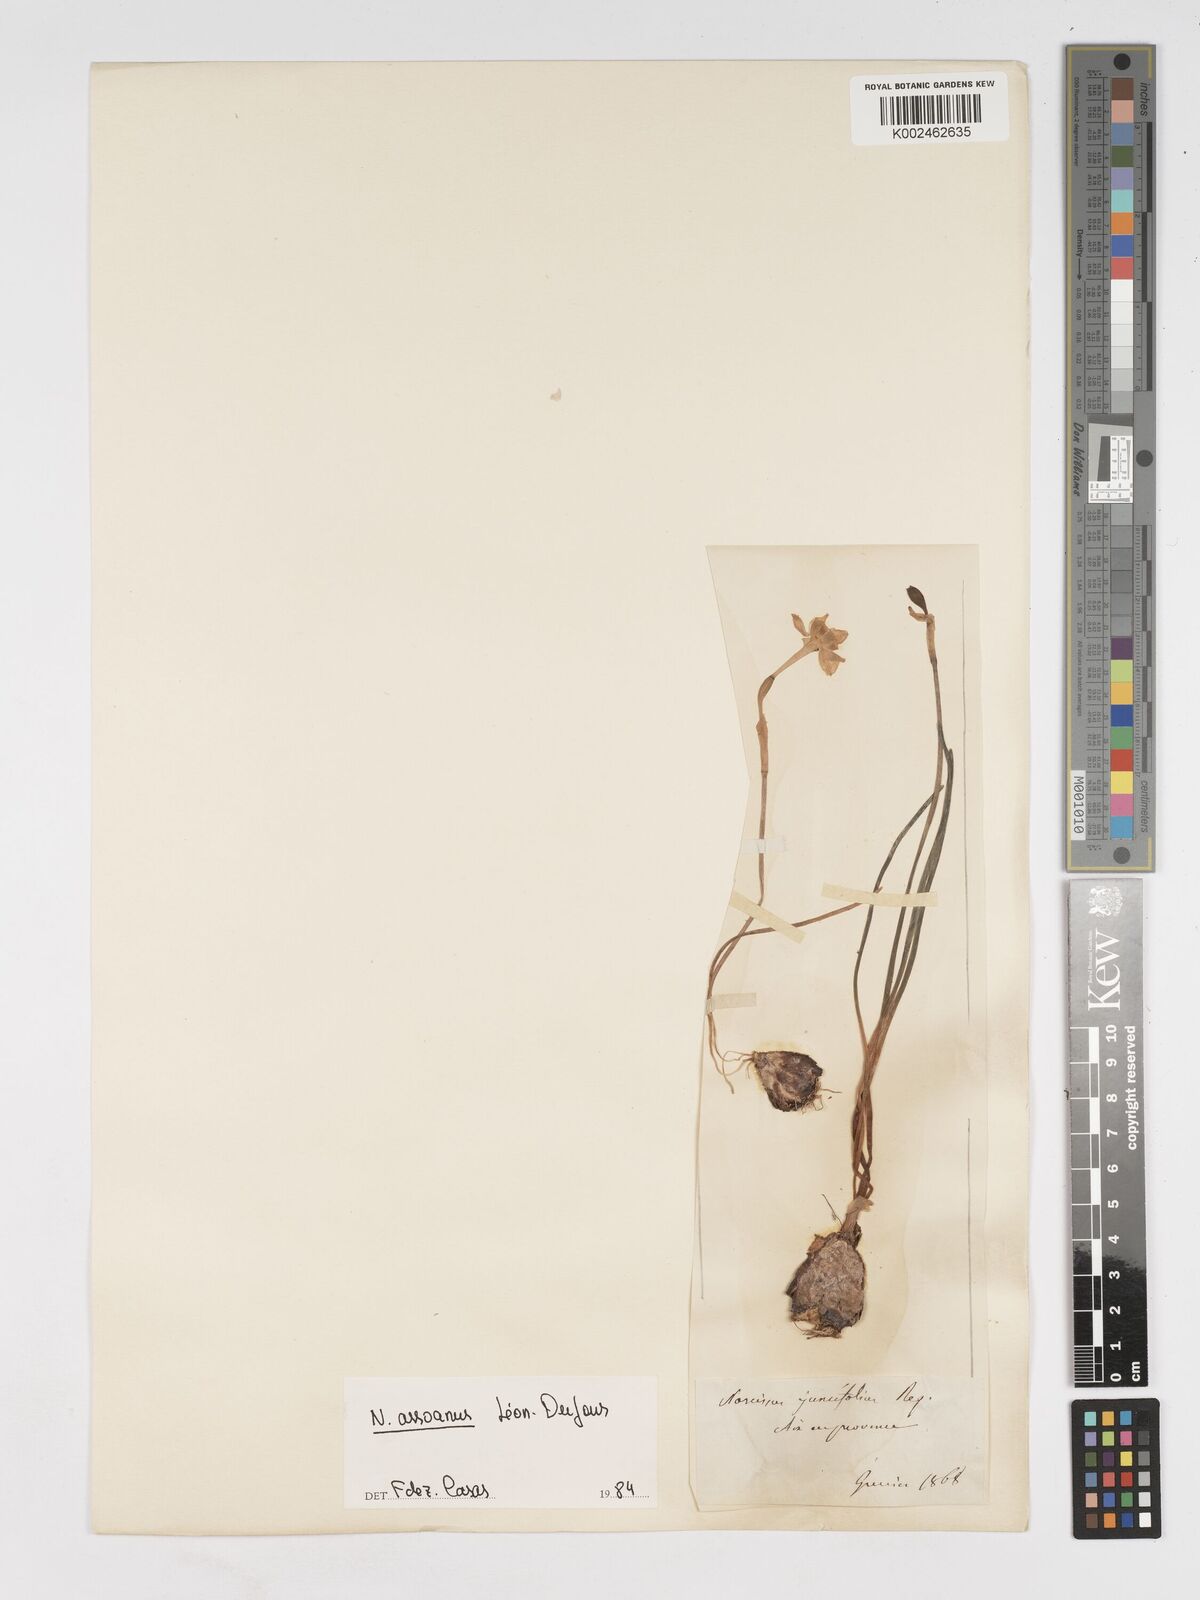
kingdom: Plantae
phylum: Tracheophyta
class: Liliopsida
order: Asparagales
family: Amaryllidaceae
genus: Narcissus
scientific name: Narcissus assoanus
